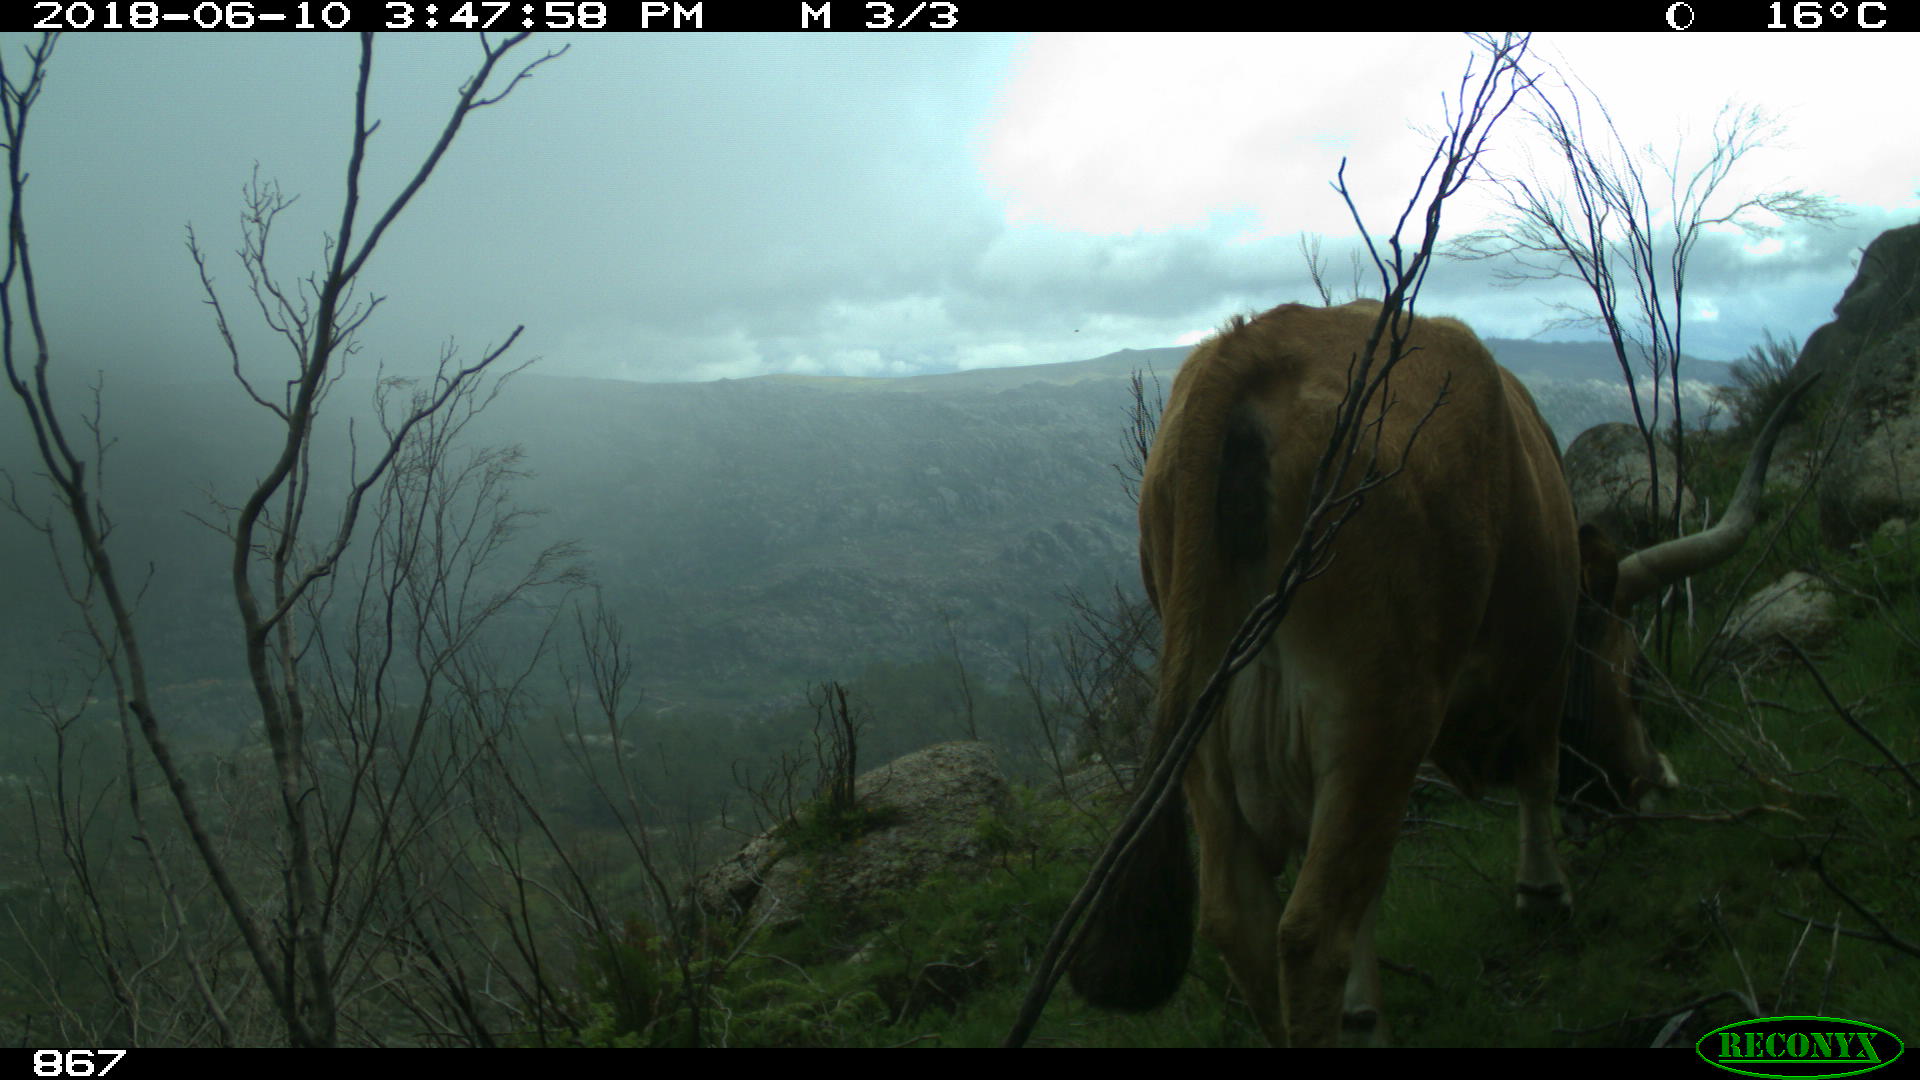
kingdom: Animalia
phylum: Chordata
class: Mammalia
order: Artiodactyla
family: Bovidae
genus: Bos
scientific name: Bos taurus
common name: Domesticated cattle
